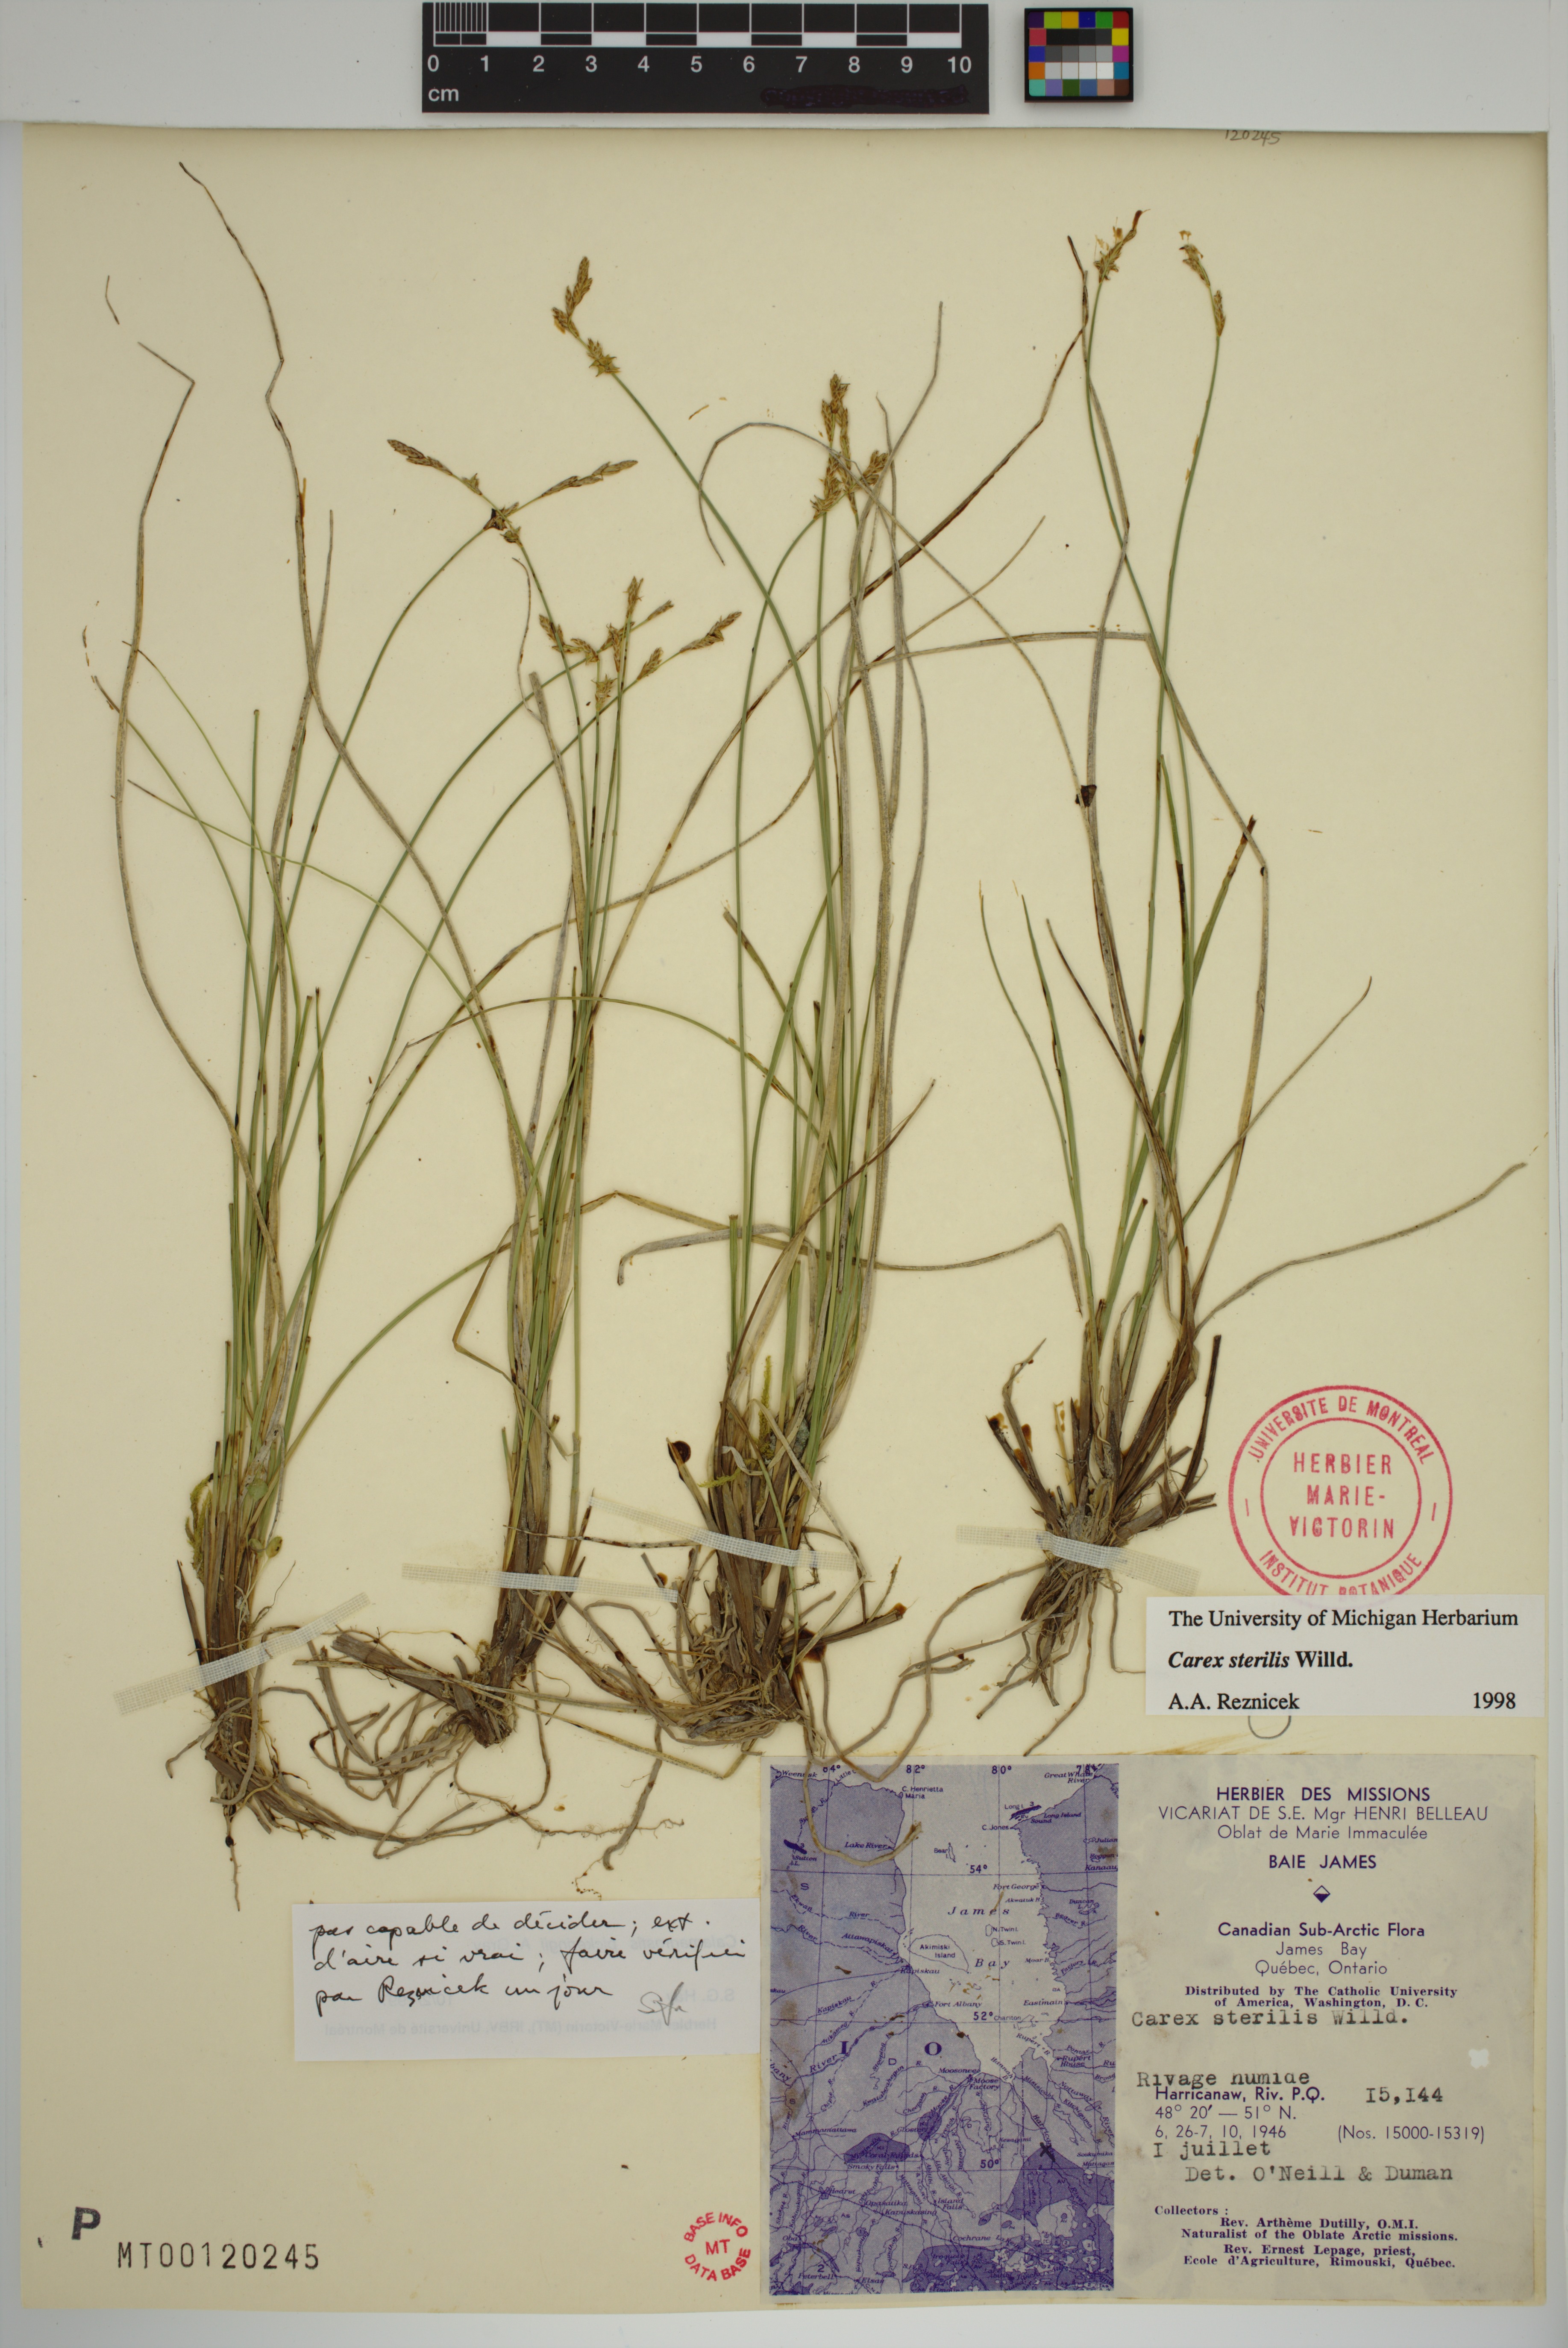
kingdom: Plantae
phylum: Tracheophyta
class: Liliopsida
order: Poales
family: Cyperaceae
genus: Carex
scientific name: Carex sterilis
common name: Dioecious sedge
